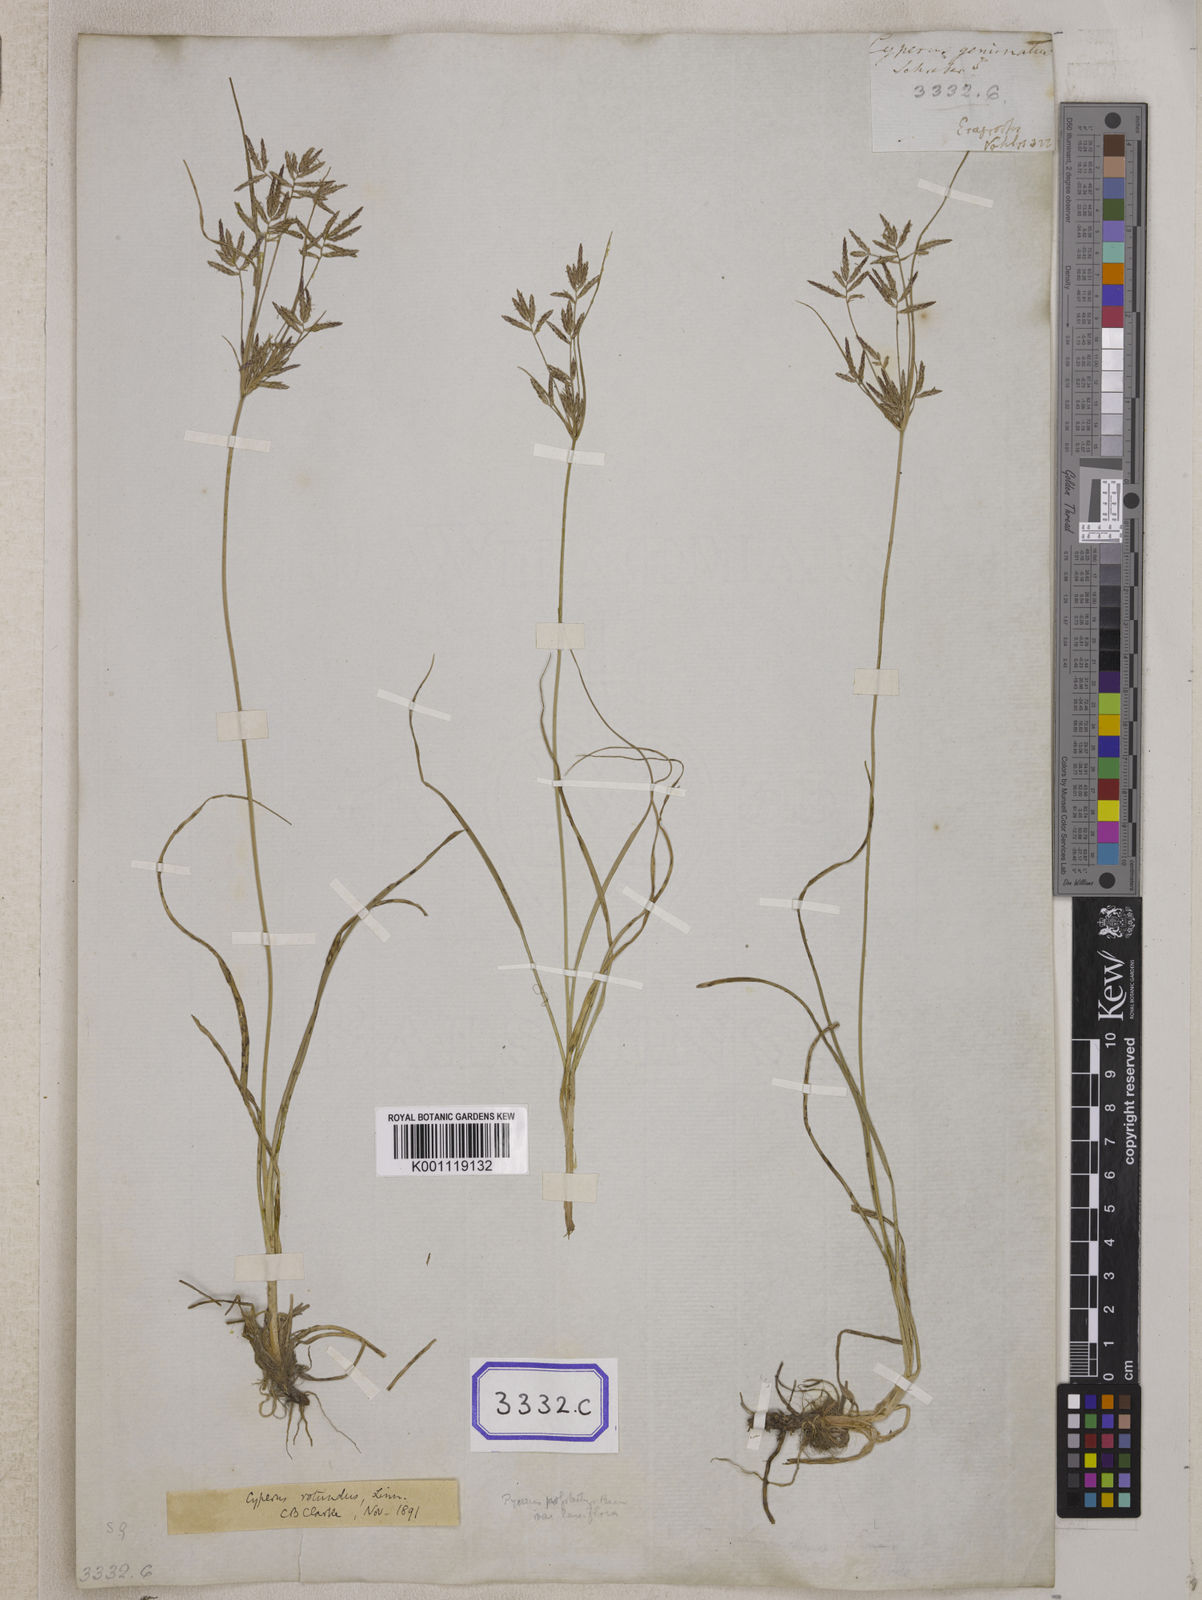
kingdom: Plantae
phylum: Tracheophyta
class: Liliopsida
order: Poales
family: Cyperaceae
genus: Cyperus
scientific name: Cyperus
